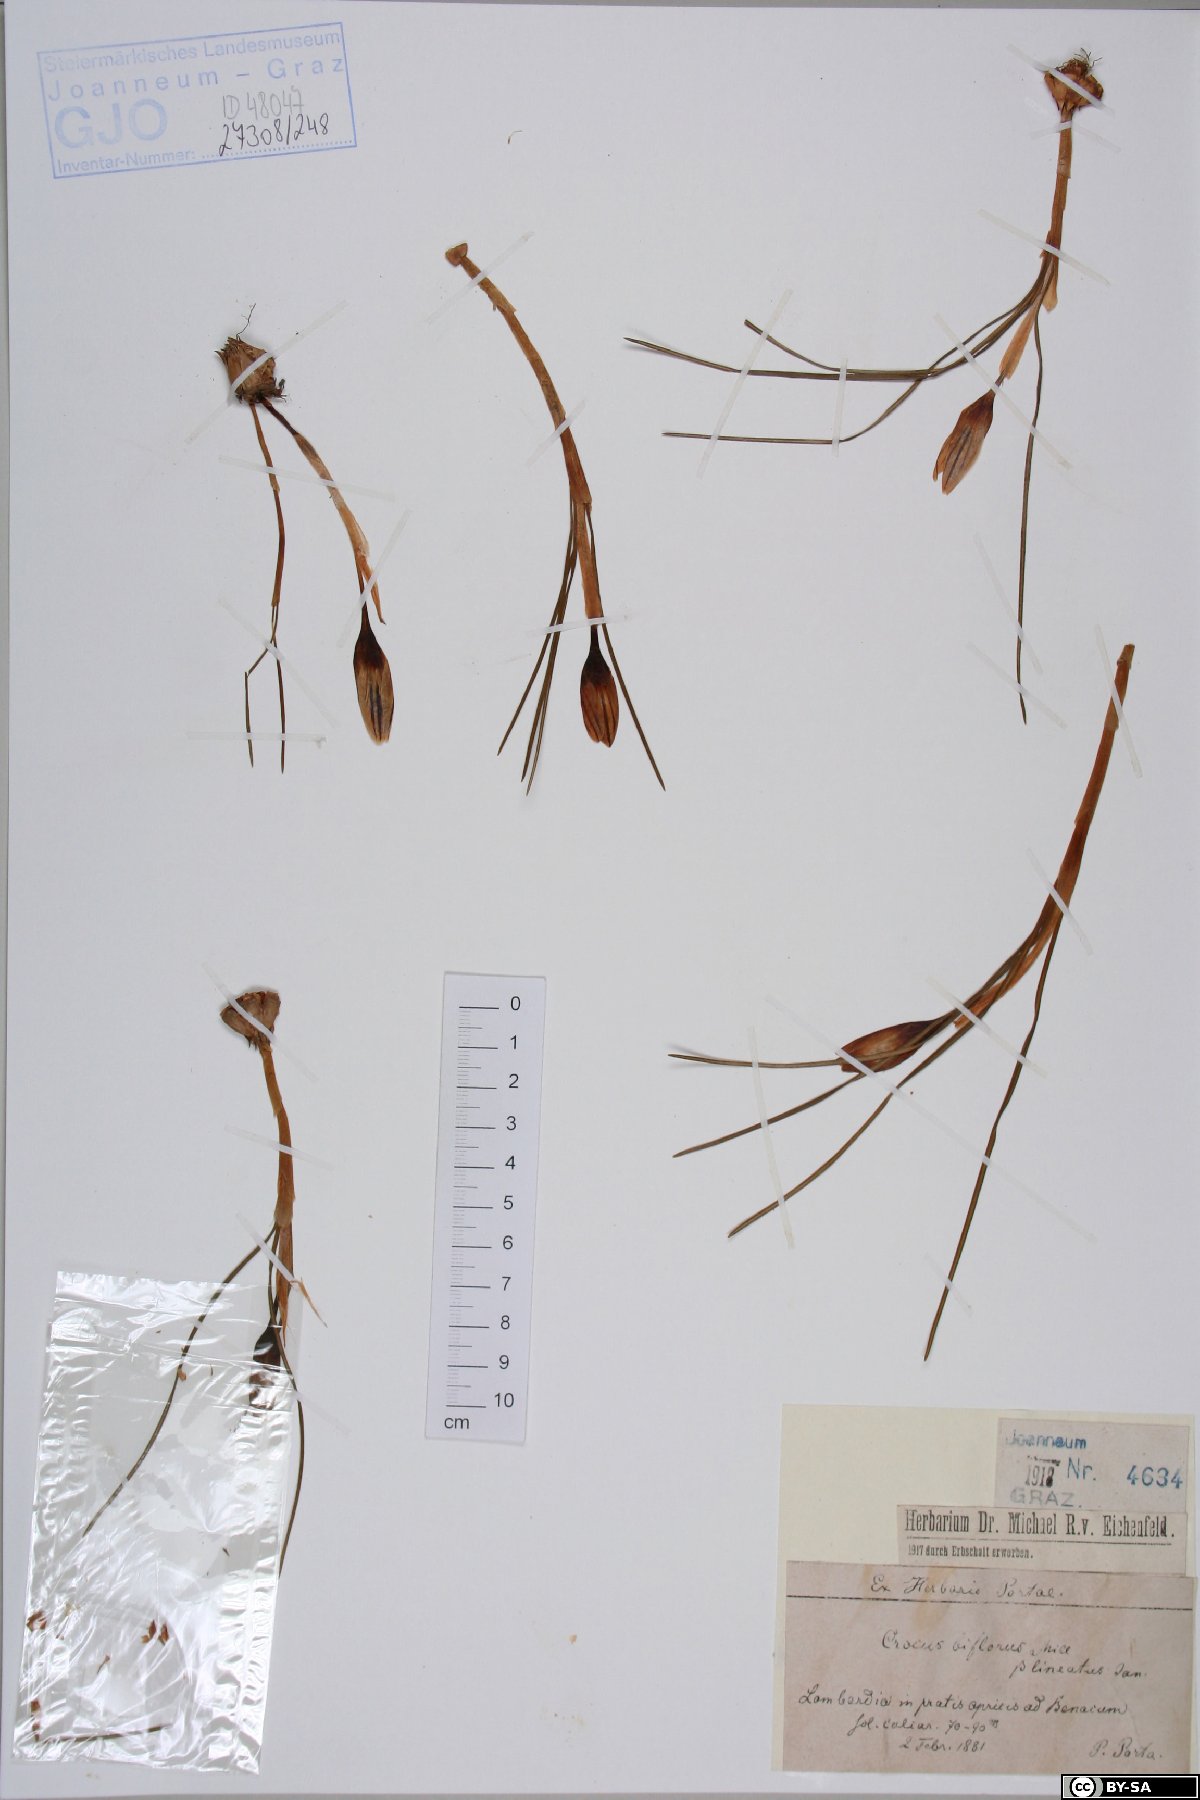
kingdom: Plantae
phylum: Tracheophyta
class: Liliopsida
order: Asparagales
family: Iridaceae
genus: Crocus
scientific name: Crocus biflorus
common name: Silvery crocus
